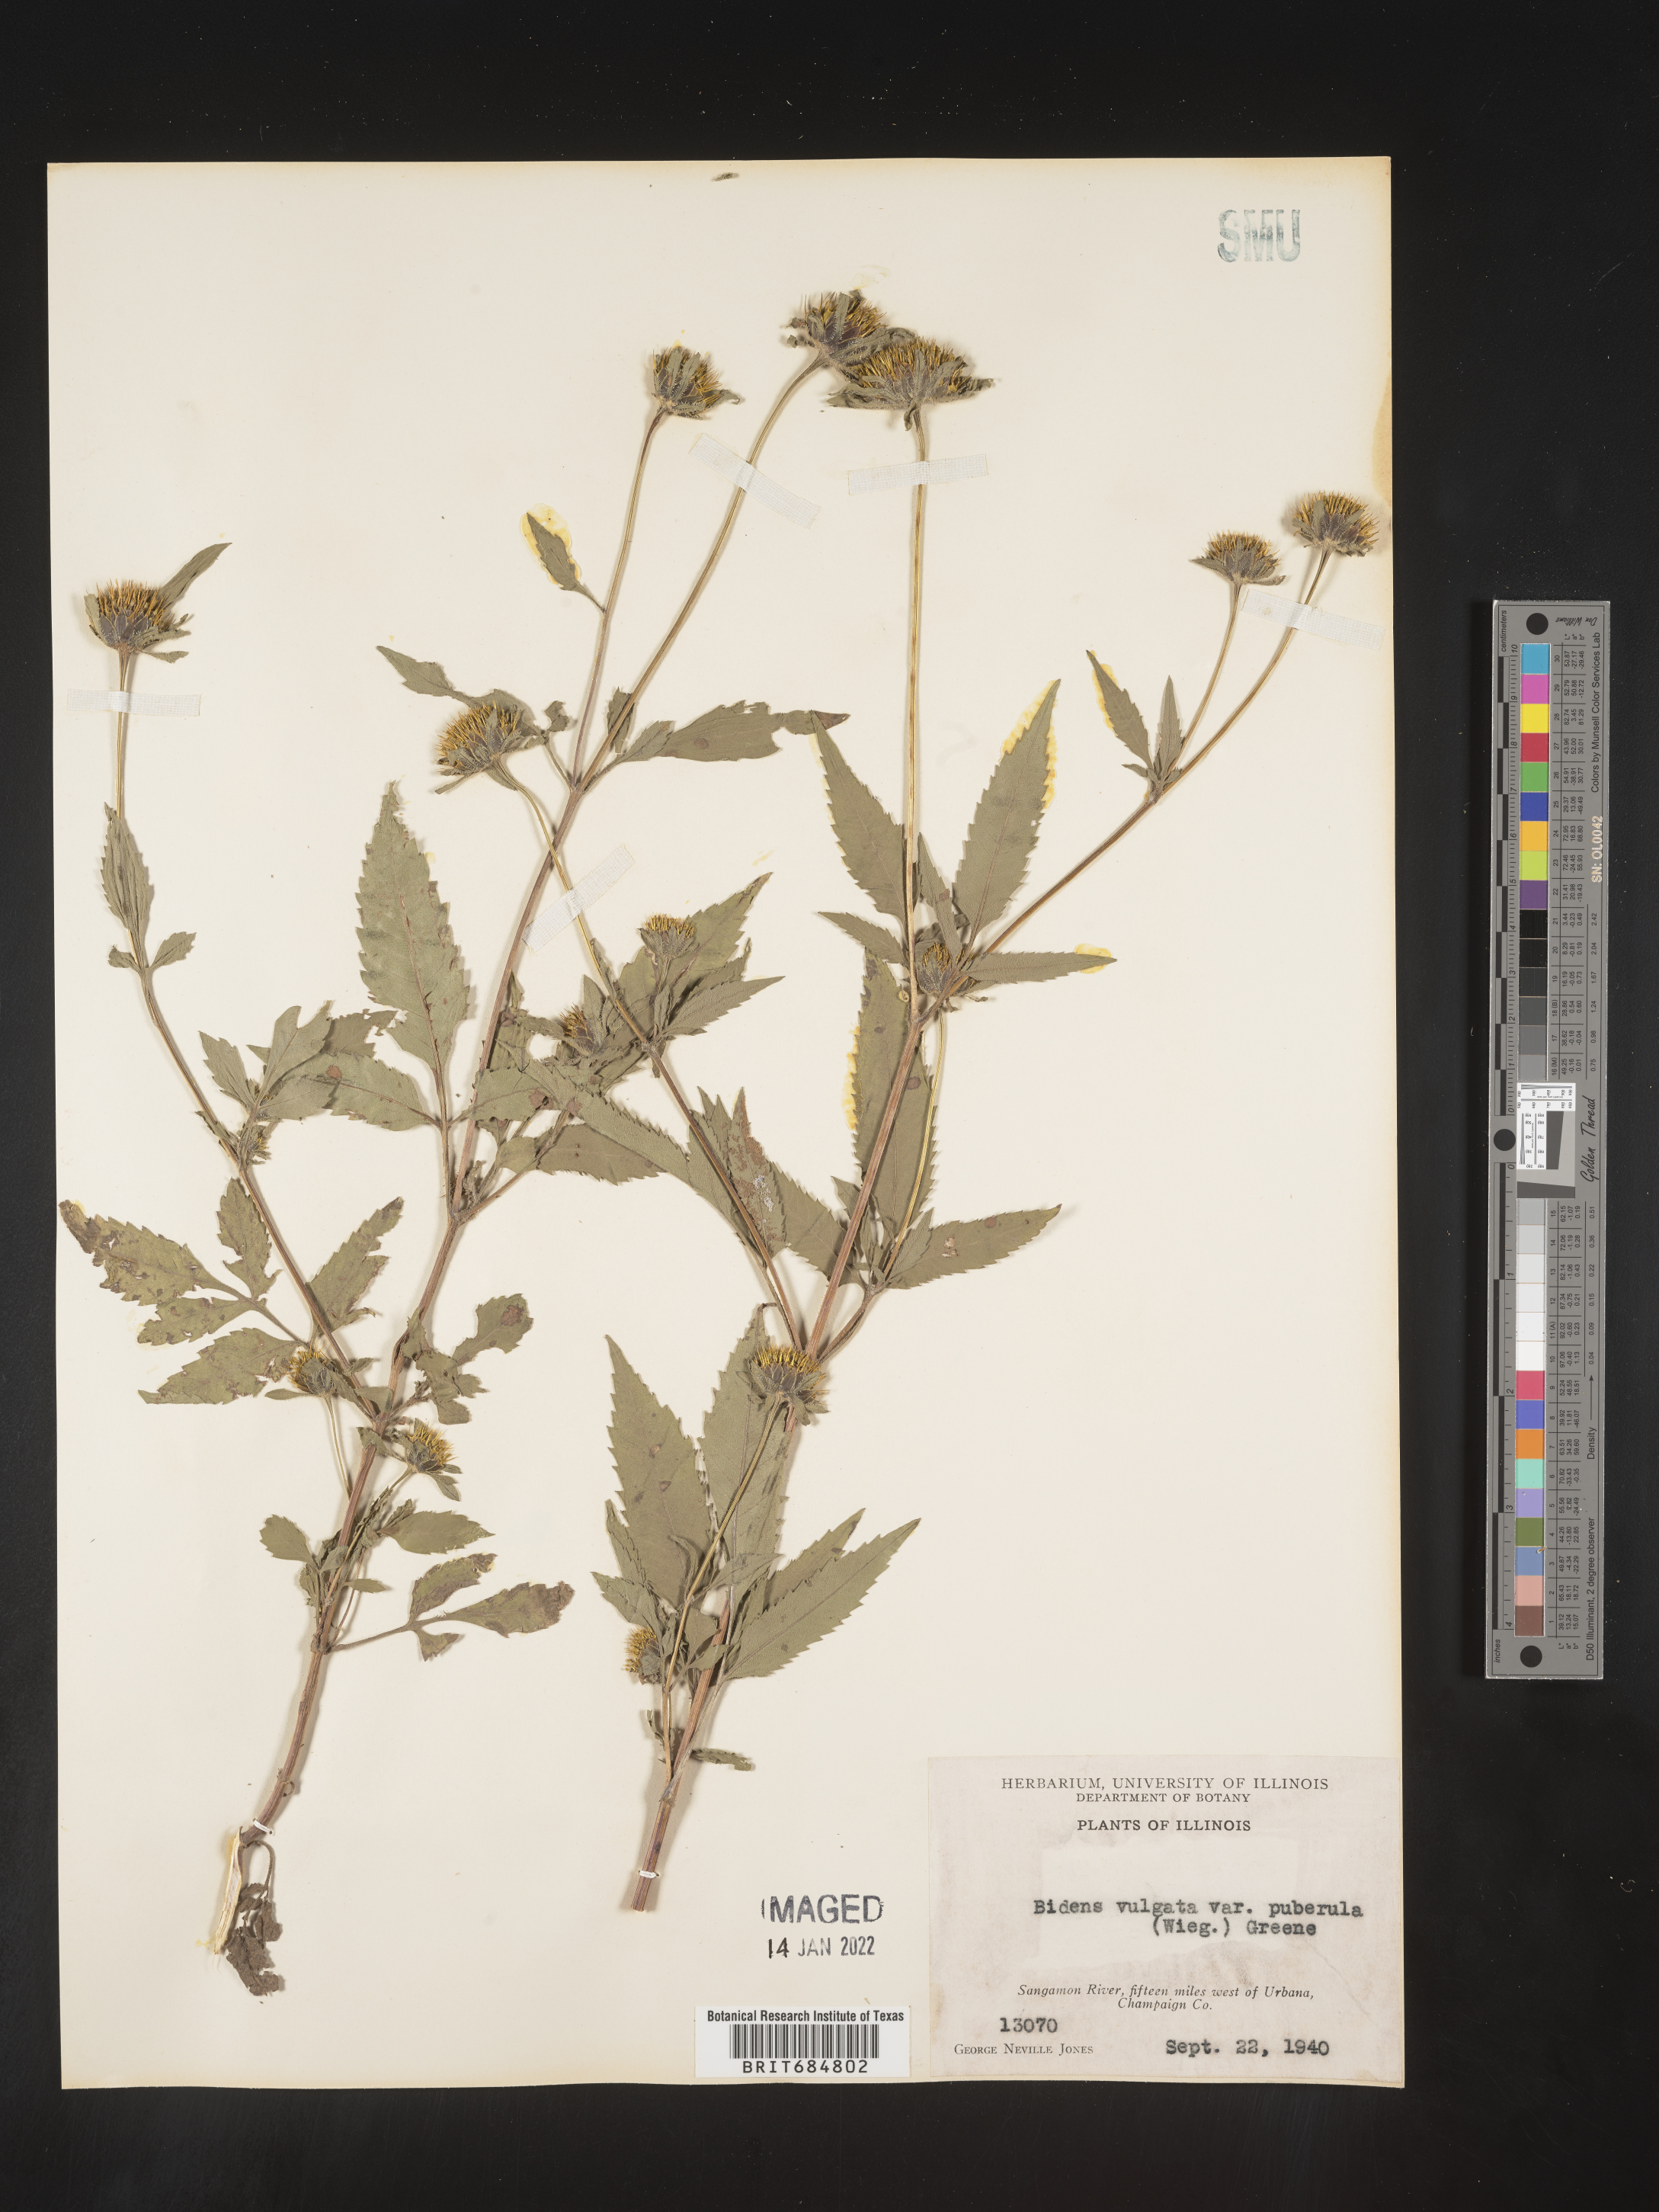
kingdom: Plantae
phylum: Tracheophyta
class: Magnoliopsida
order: Asterales
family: Asteraceae
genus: Bidens
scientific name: Bidens vulgata
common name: Tall beggarticks
